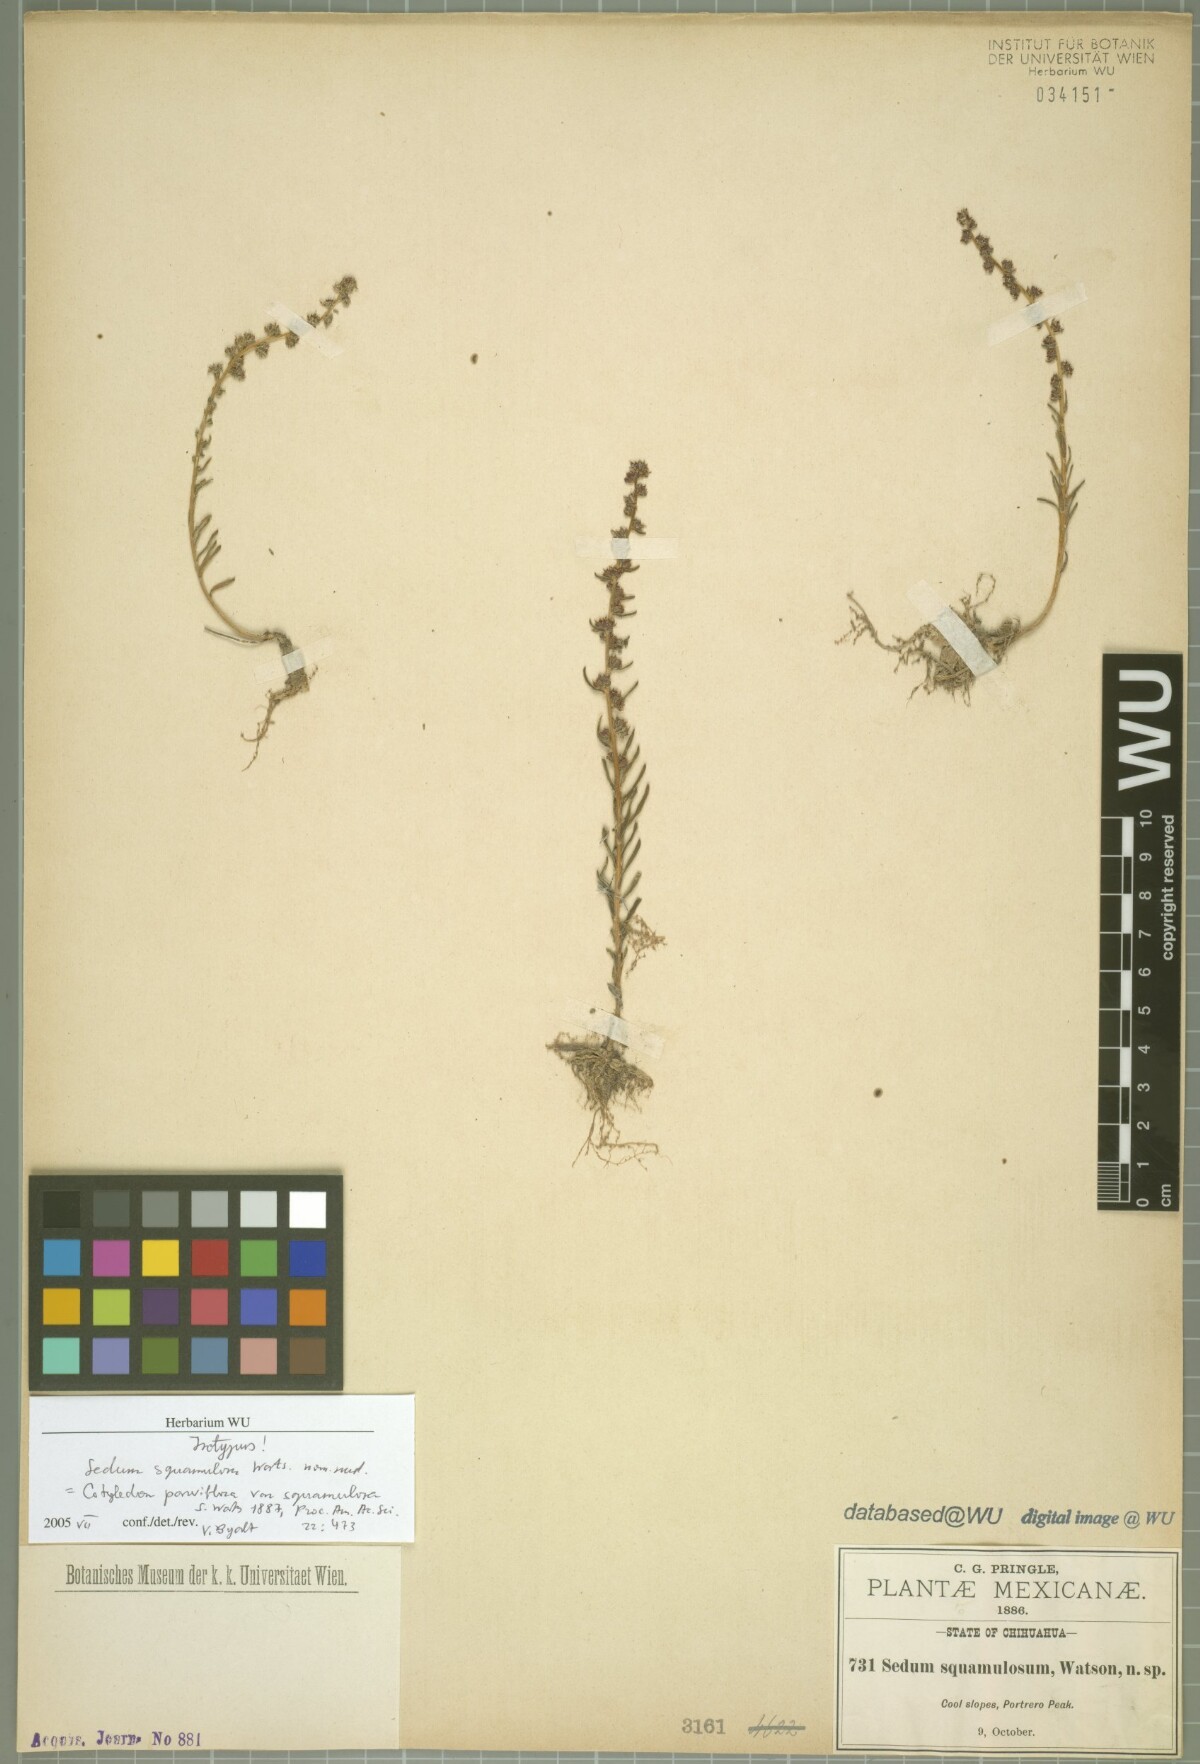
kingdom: Plantae
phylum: Tracheophyta
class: Magnoliopsida
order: Saxifragales
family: Crassulaceae
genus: Villadia
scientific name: Villadia squamulosa
